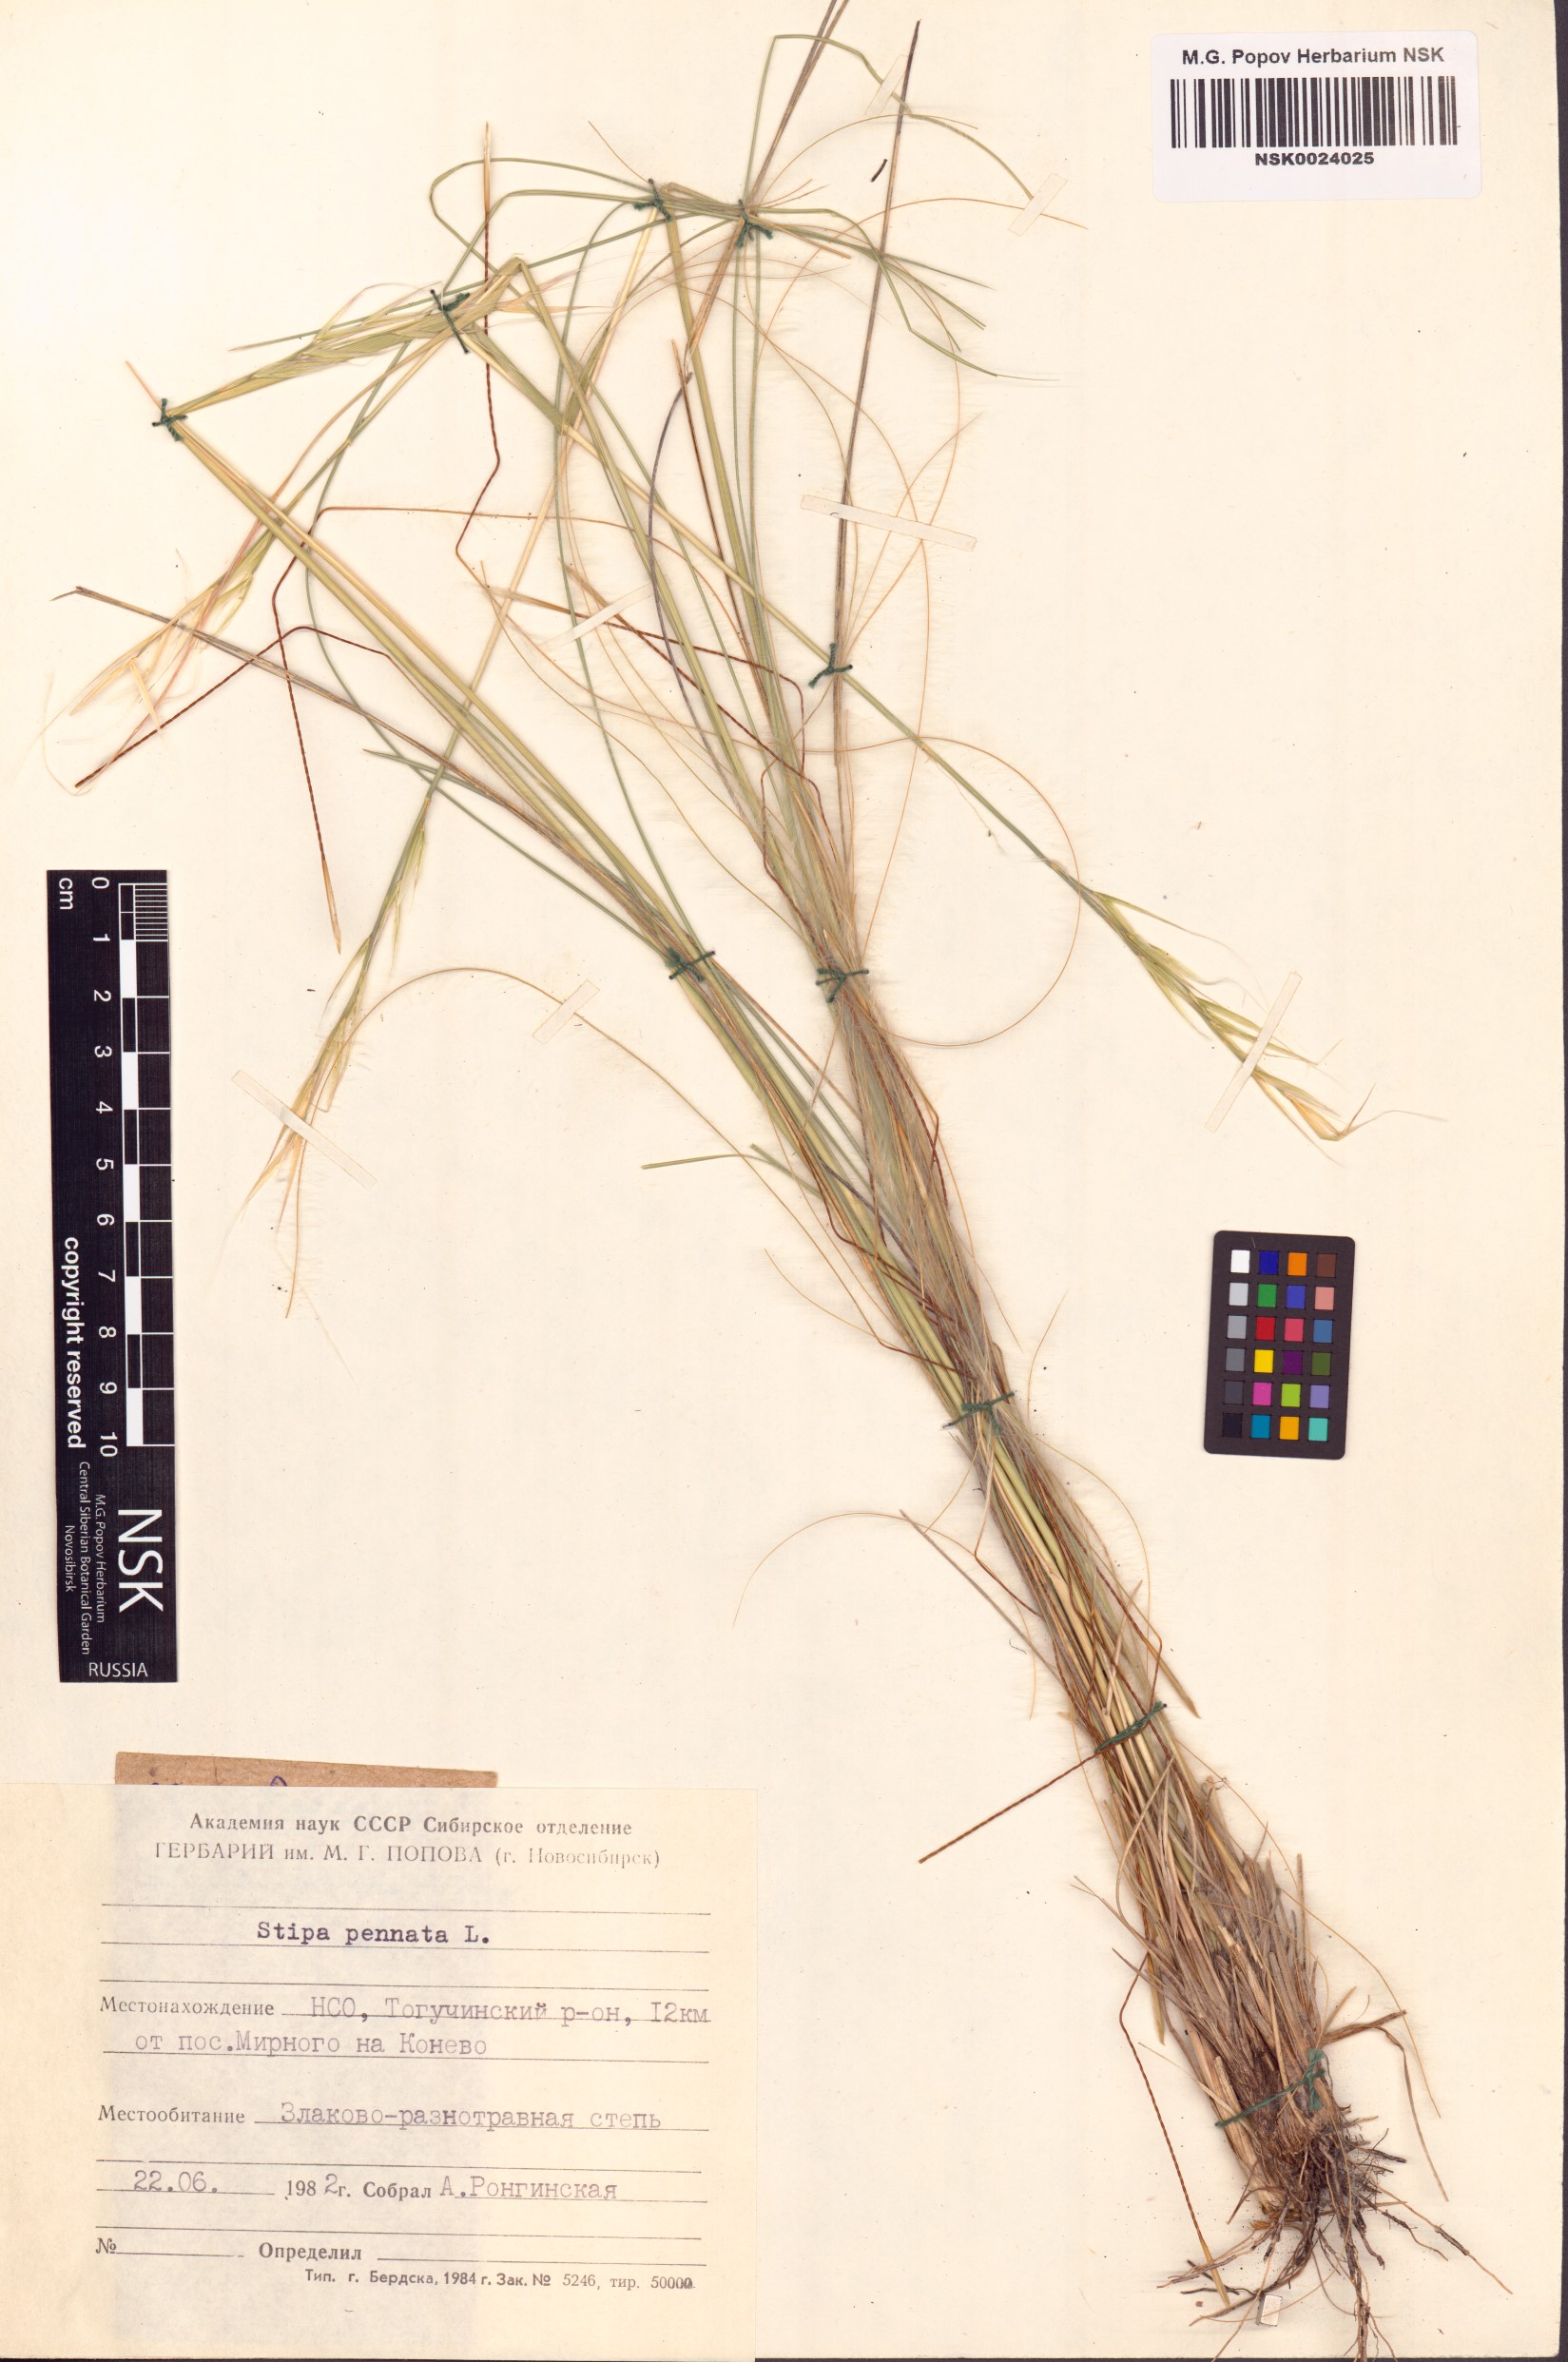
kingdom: Plantae
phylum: Tracheophyta
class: Liliopsida
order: Poales
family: Poaceae
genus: Stipa
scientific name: Stipa pennata
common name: European feather grass
